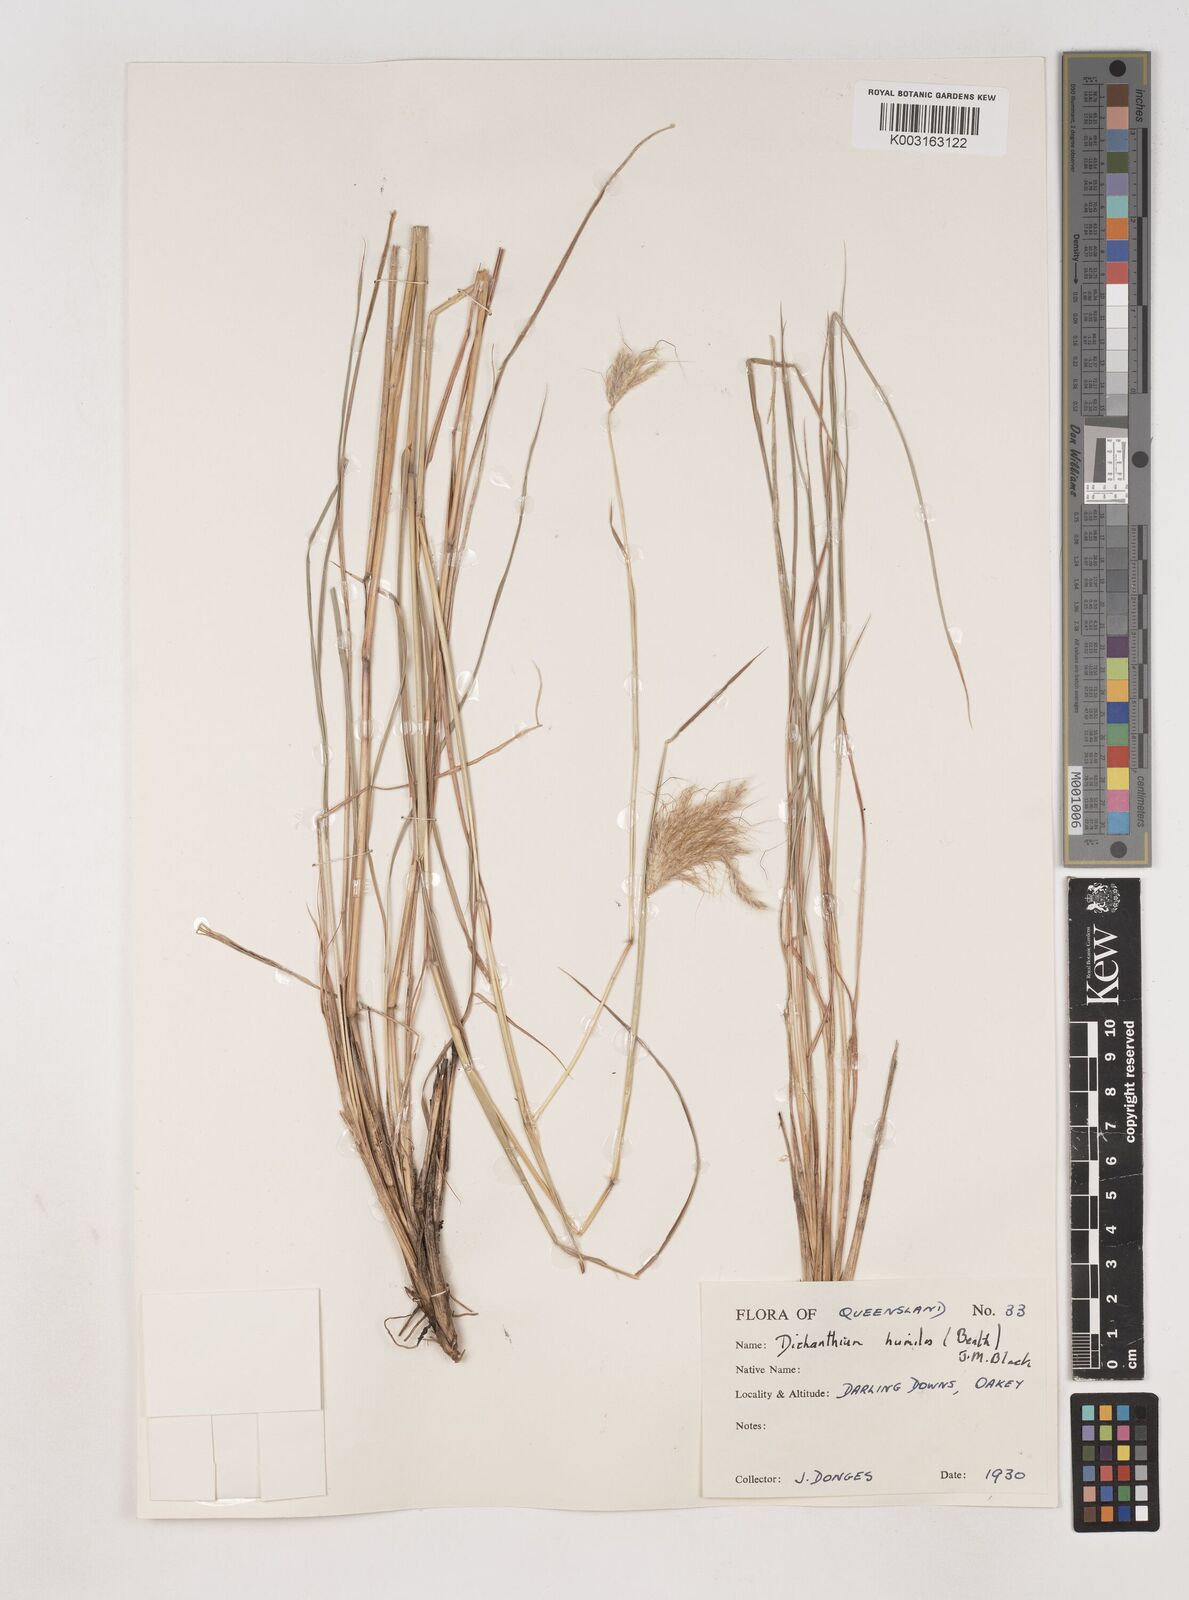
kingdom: Plantae
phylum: Tracheophyta
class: Liliopsida
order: Poales
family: Poaceae
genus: Dichanthium
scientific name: Dichanthium sericeum
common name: Silky bluestem
